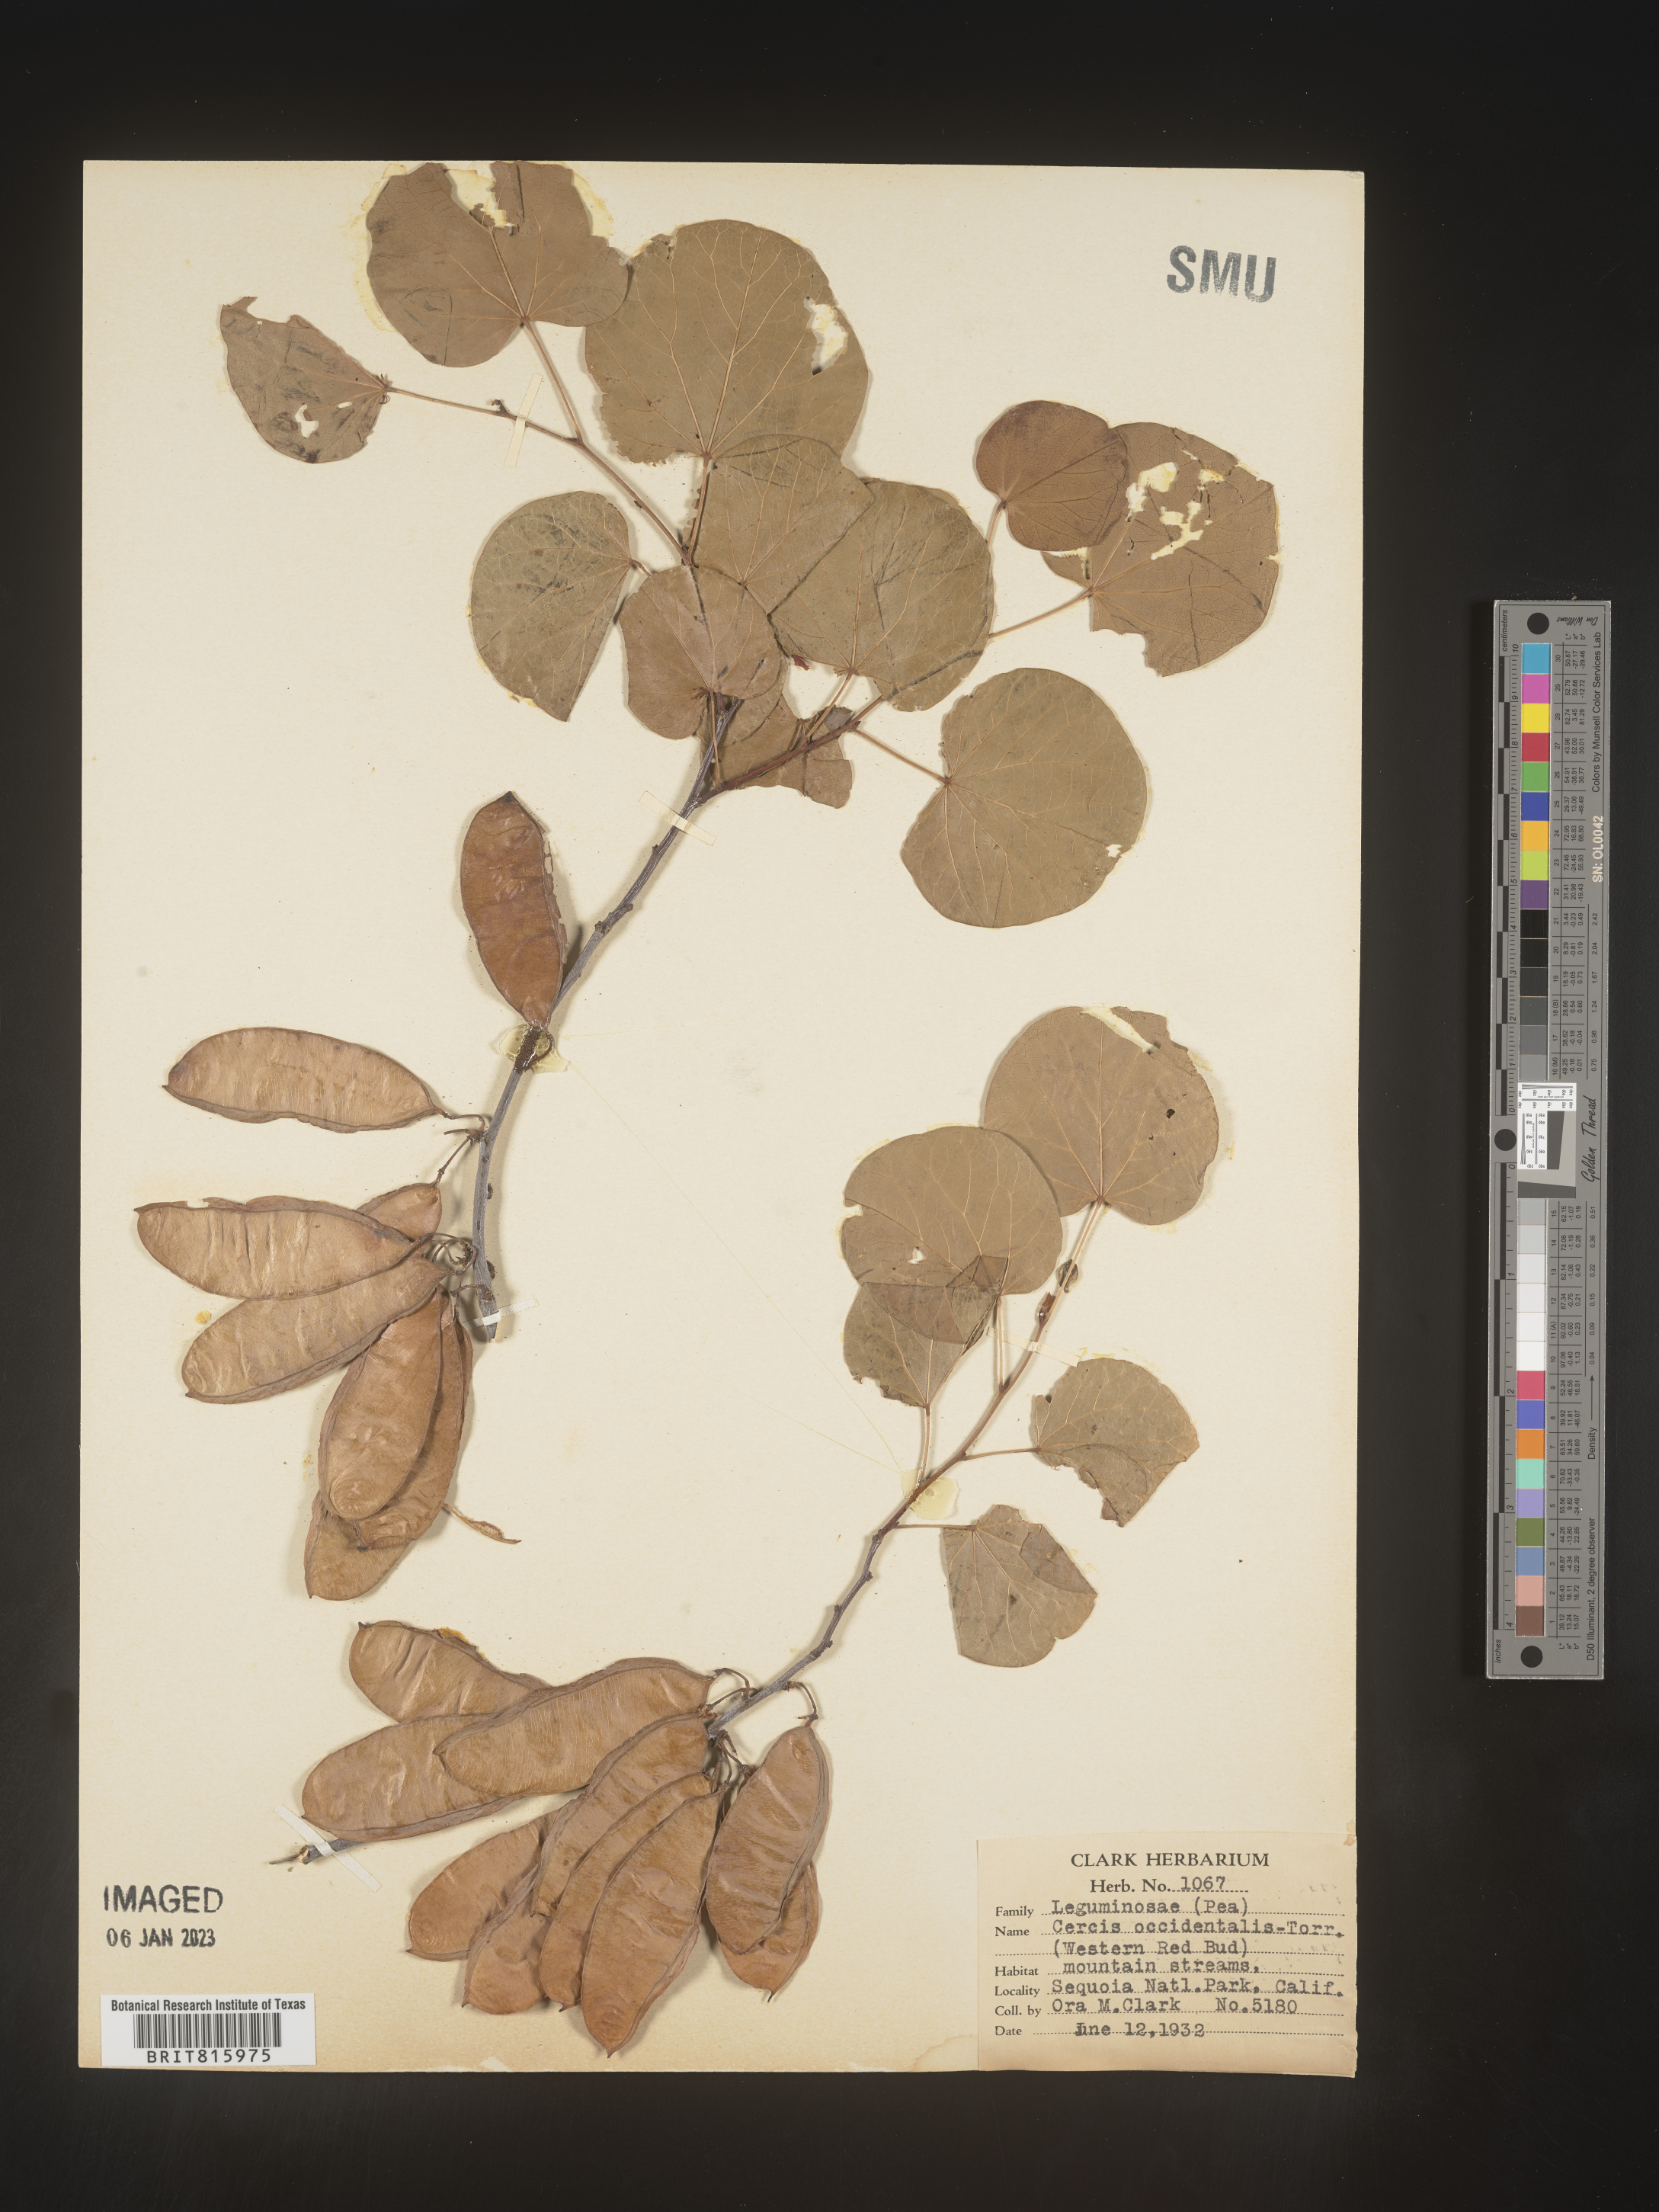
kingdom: Plantae
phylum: Tracheophyta
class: Magnoliopsida
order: Fabales
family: Fabaceae
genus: Cercis
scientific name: Cercis occidentalis
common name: California redbud
